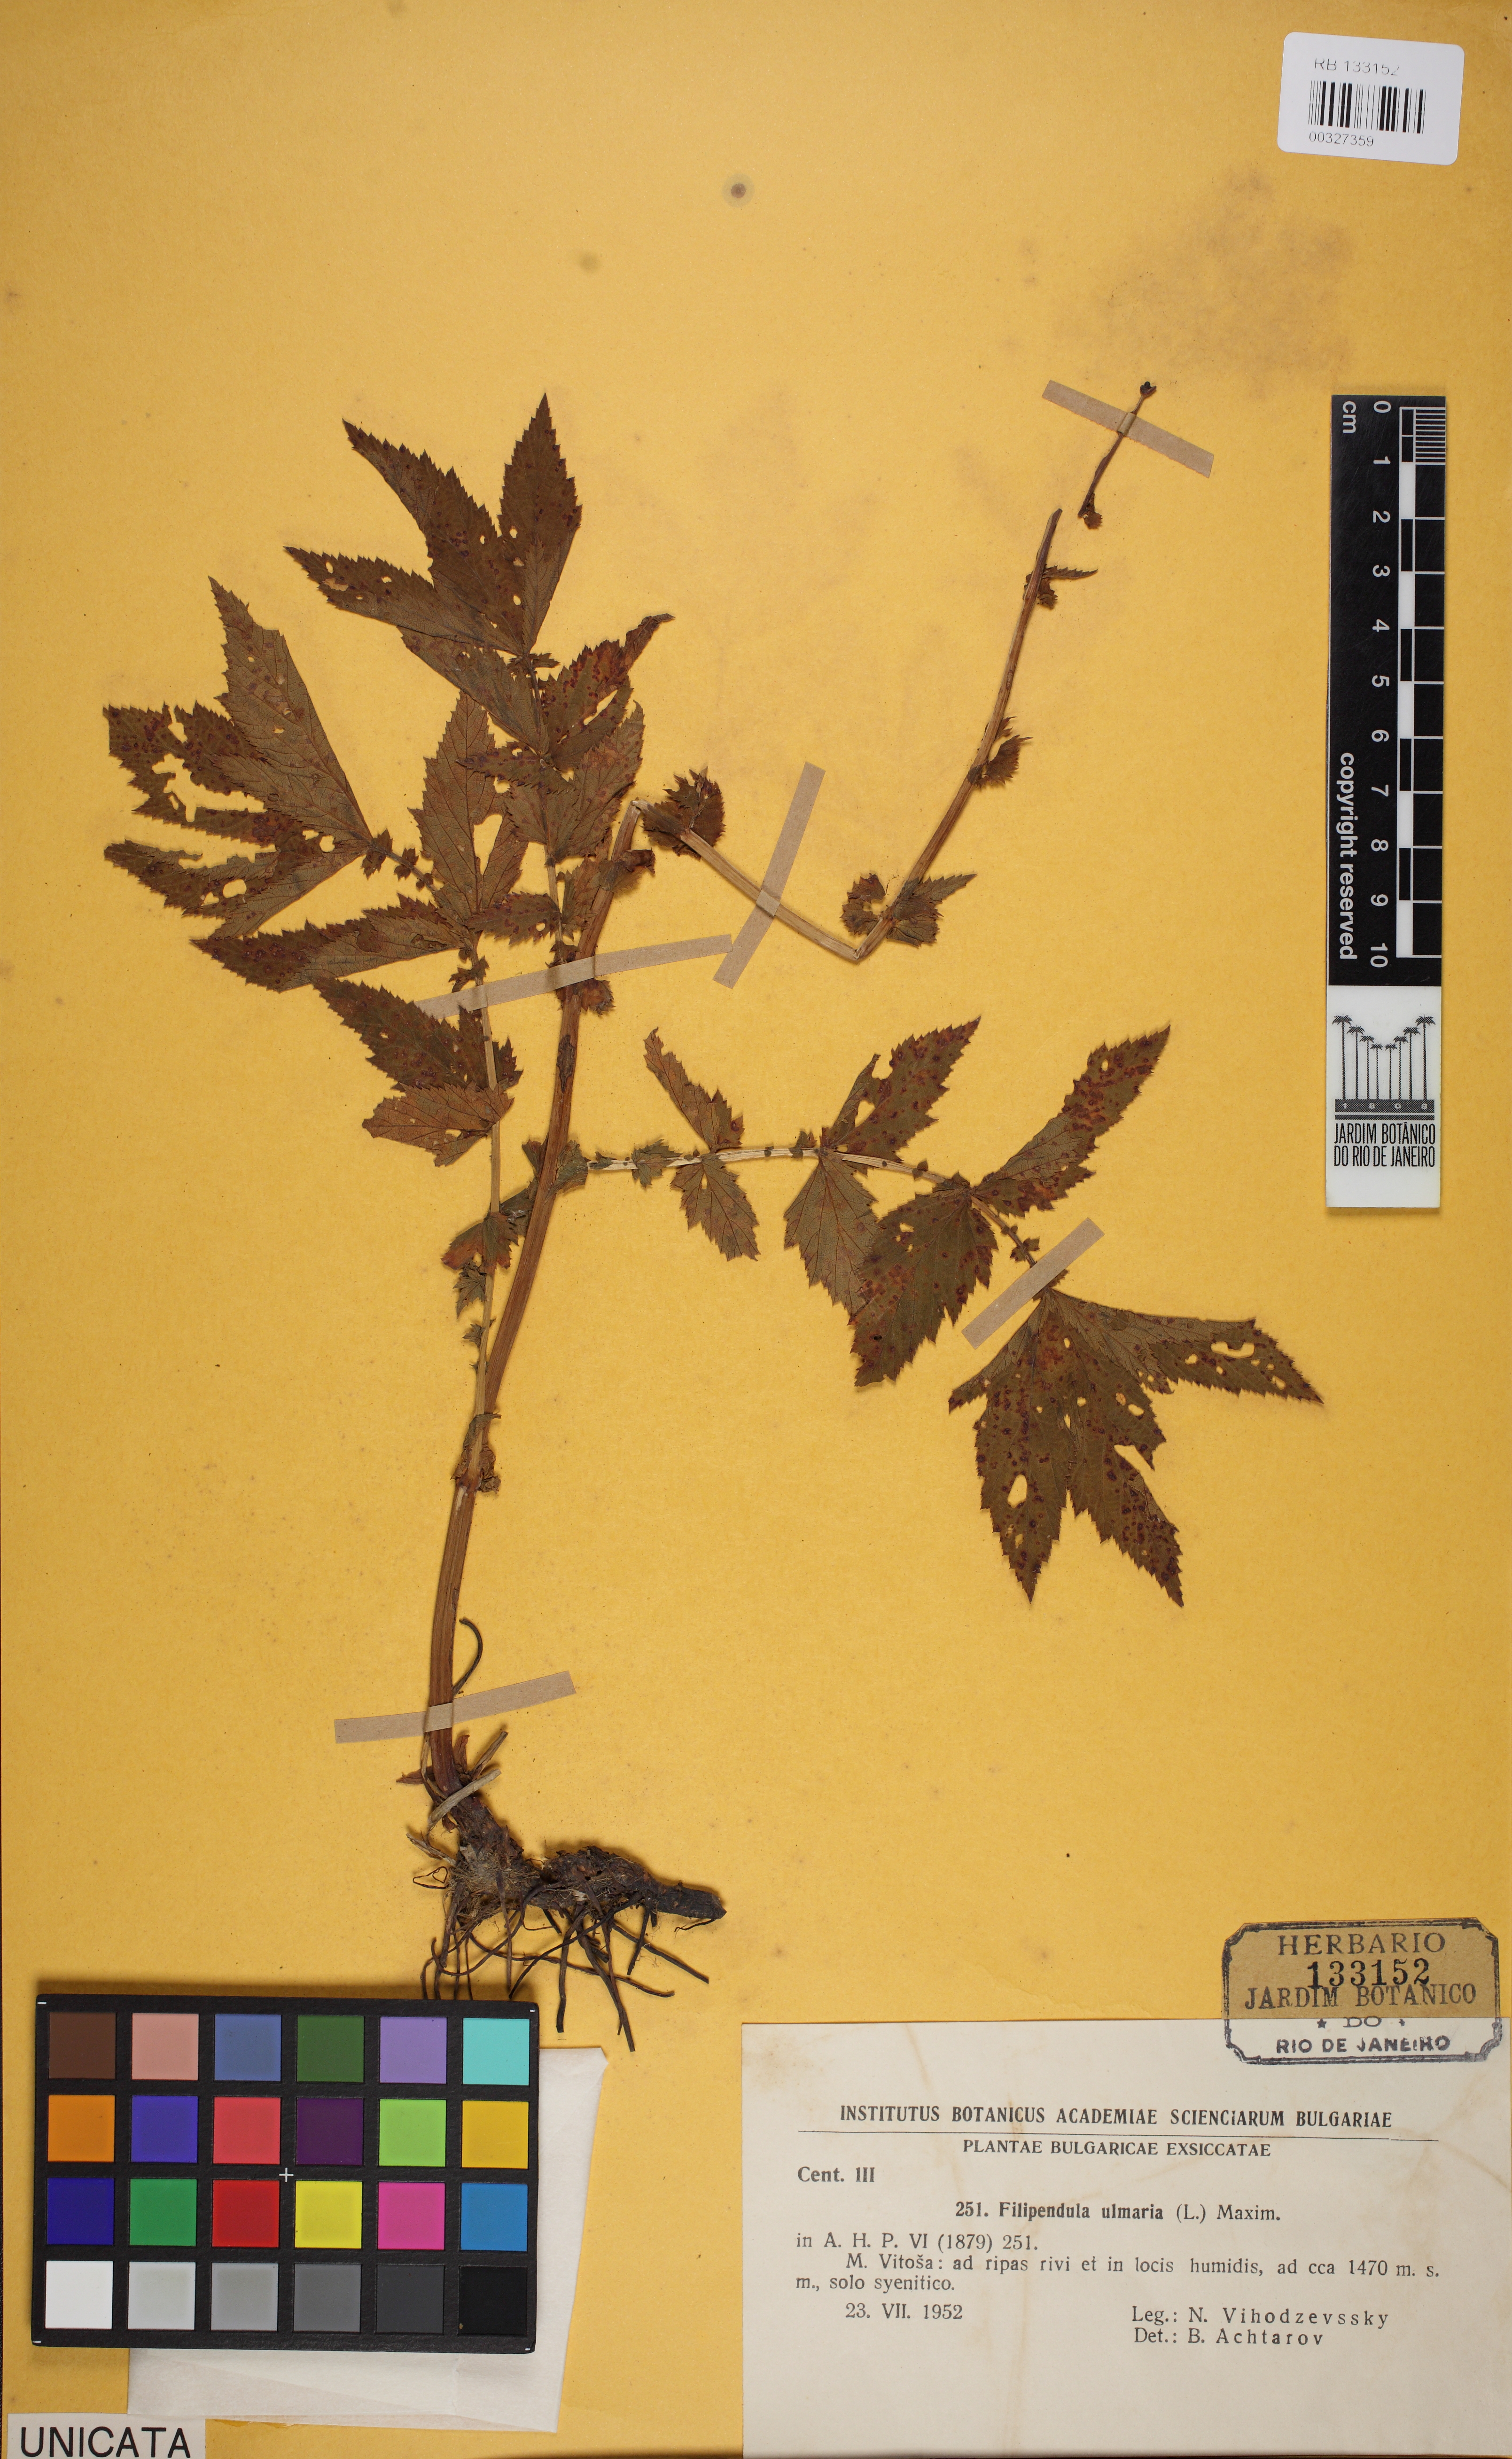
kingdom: Plantae
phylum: Tracheophyta
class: Magnoliopsida
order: Rosales
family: Rosaceae
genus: Filipendula
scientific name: Filipendula ulmaria
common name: Meadowsweet
